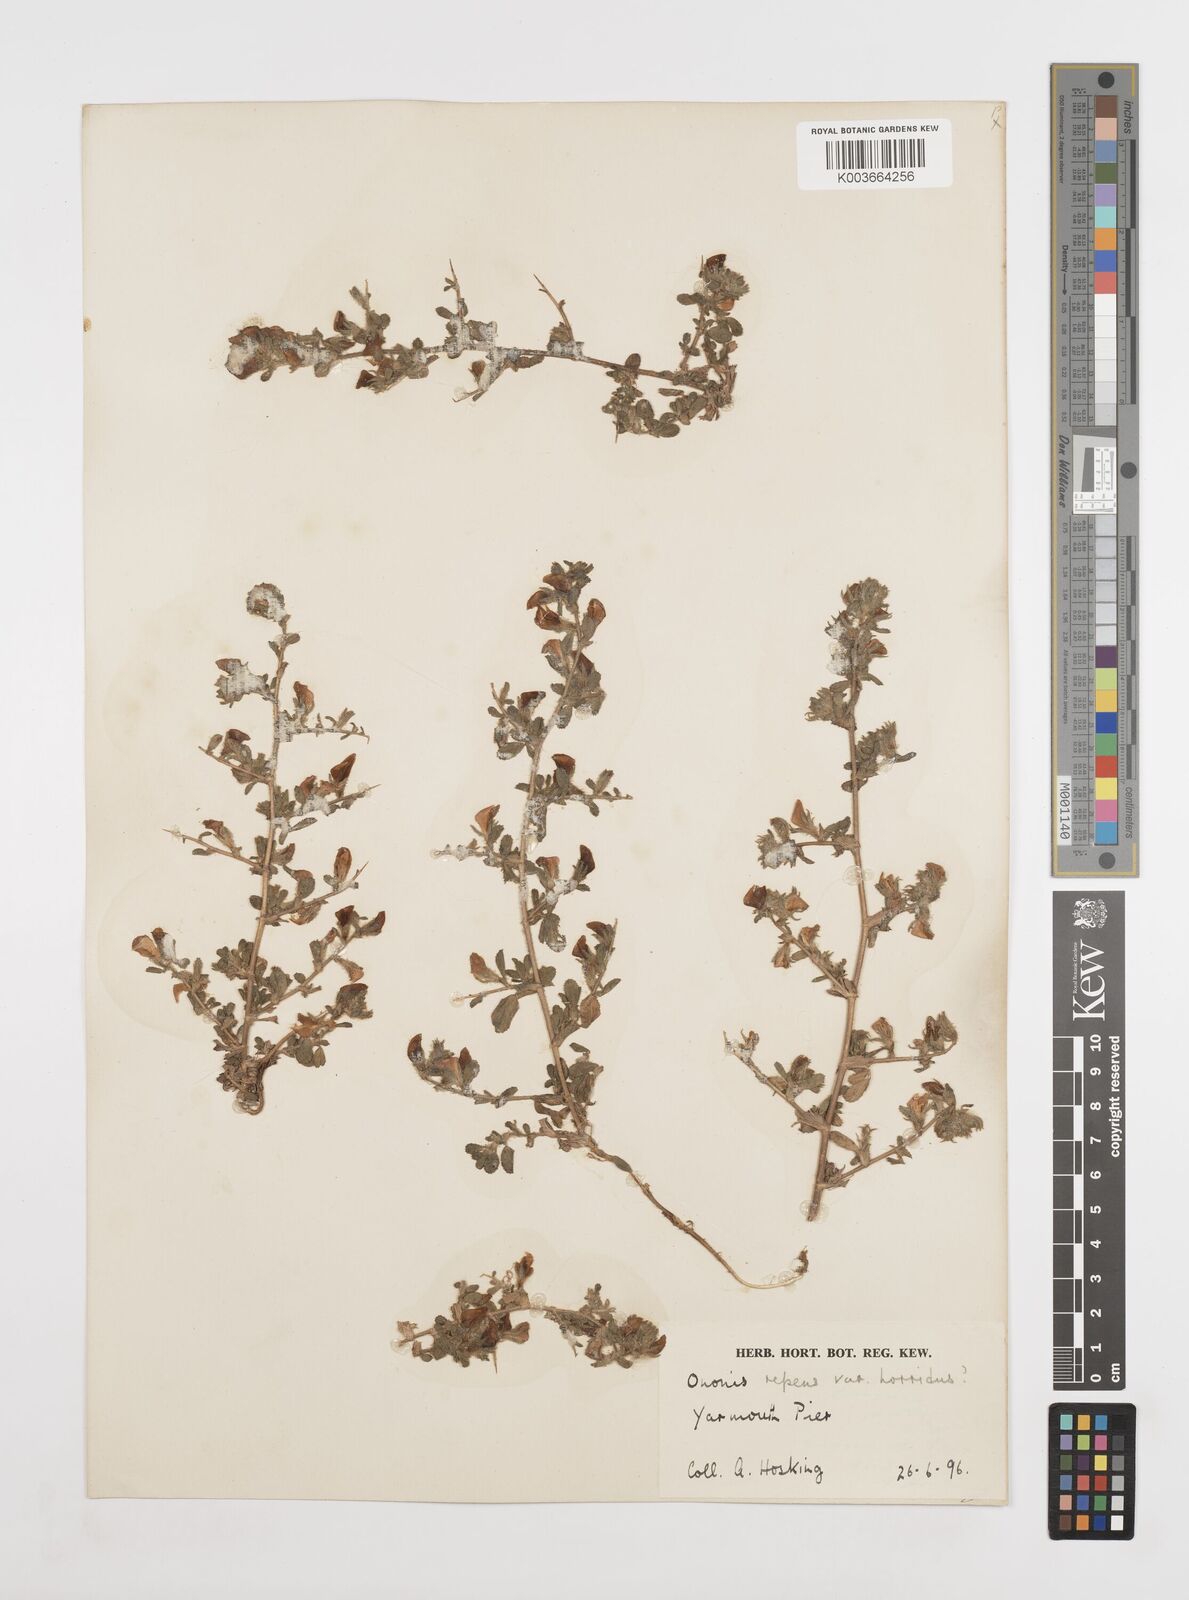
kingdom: Plantae
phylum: Tracheophyta
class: Magnoliopsida
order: Fabales
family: Fabaceae
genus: Ononis
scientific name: Ononis spinosa
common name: Spiny restharrow
